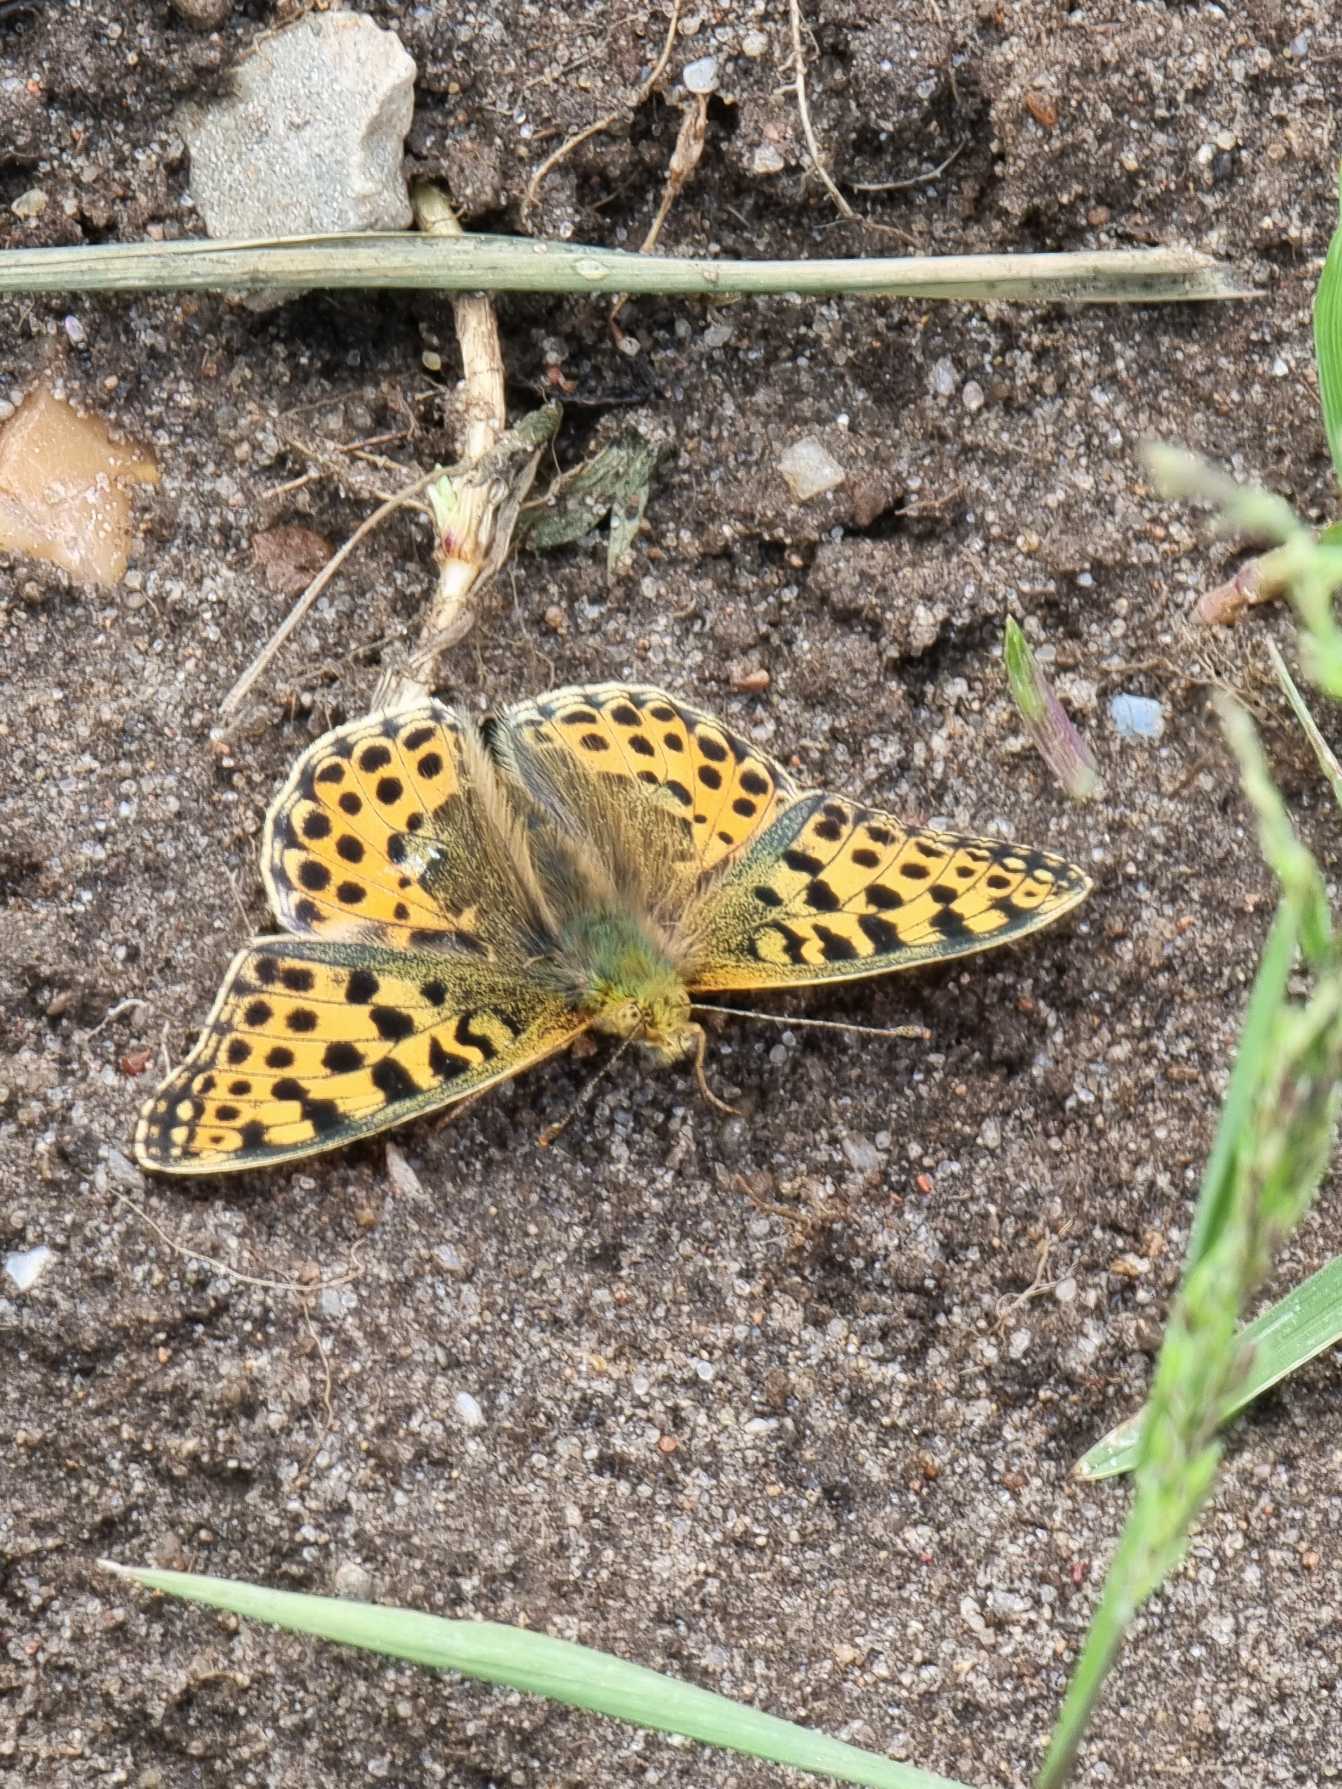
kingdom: Animalia
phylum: Arthropoda
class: Insecta
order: Lepidoptera
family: Nymphalidae
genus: Issoria
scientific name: Issoria lathonia
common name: Storplettet perlemorsommerfugl
